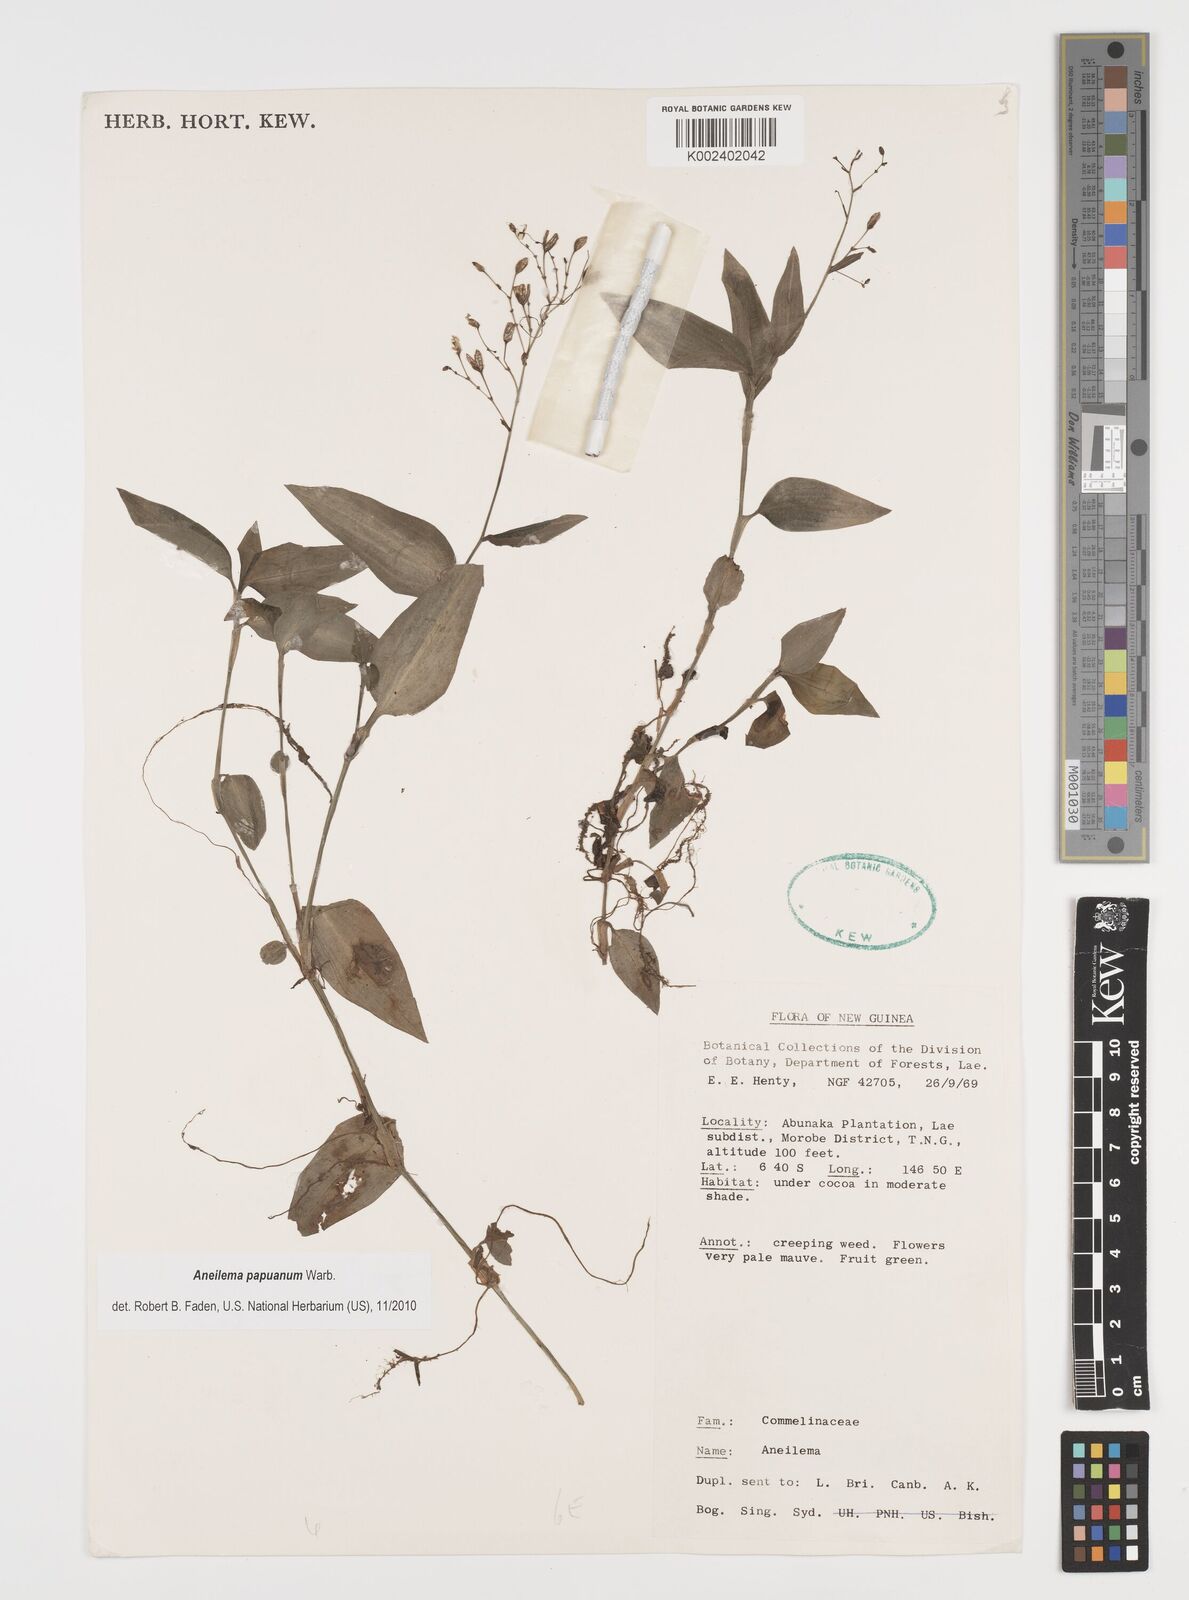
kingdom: Plantae
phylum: Tracheophyta
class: Liliopsida
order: Commelinales
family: Commelinaceae
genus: Aneilema
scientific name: Aneilema acuminatum
